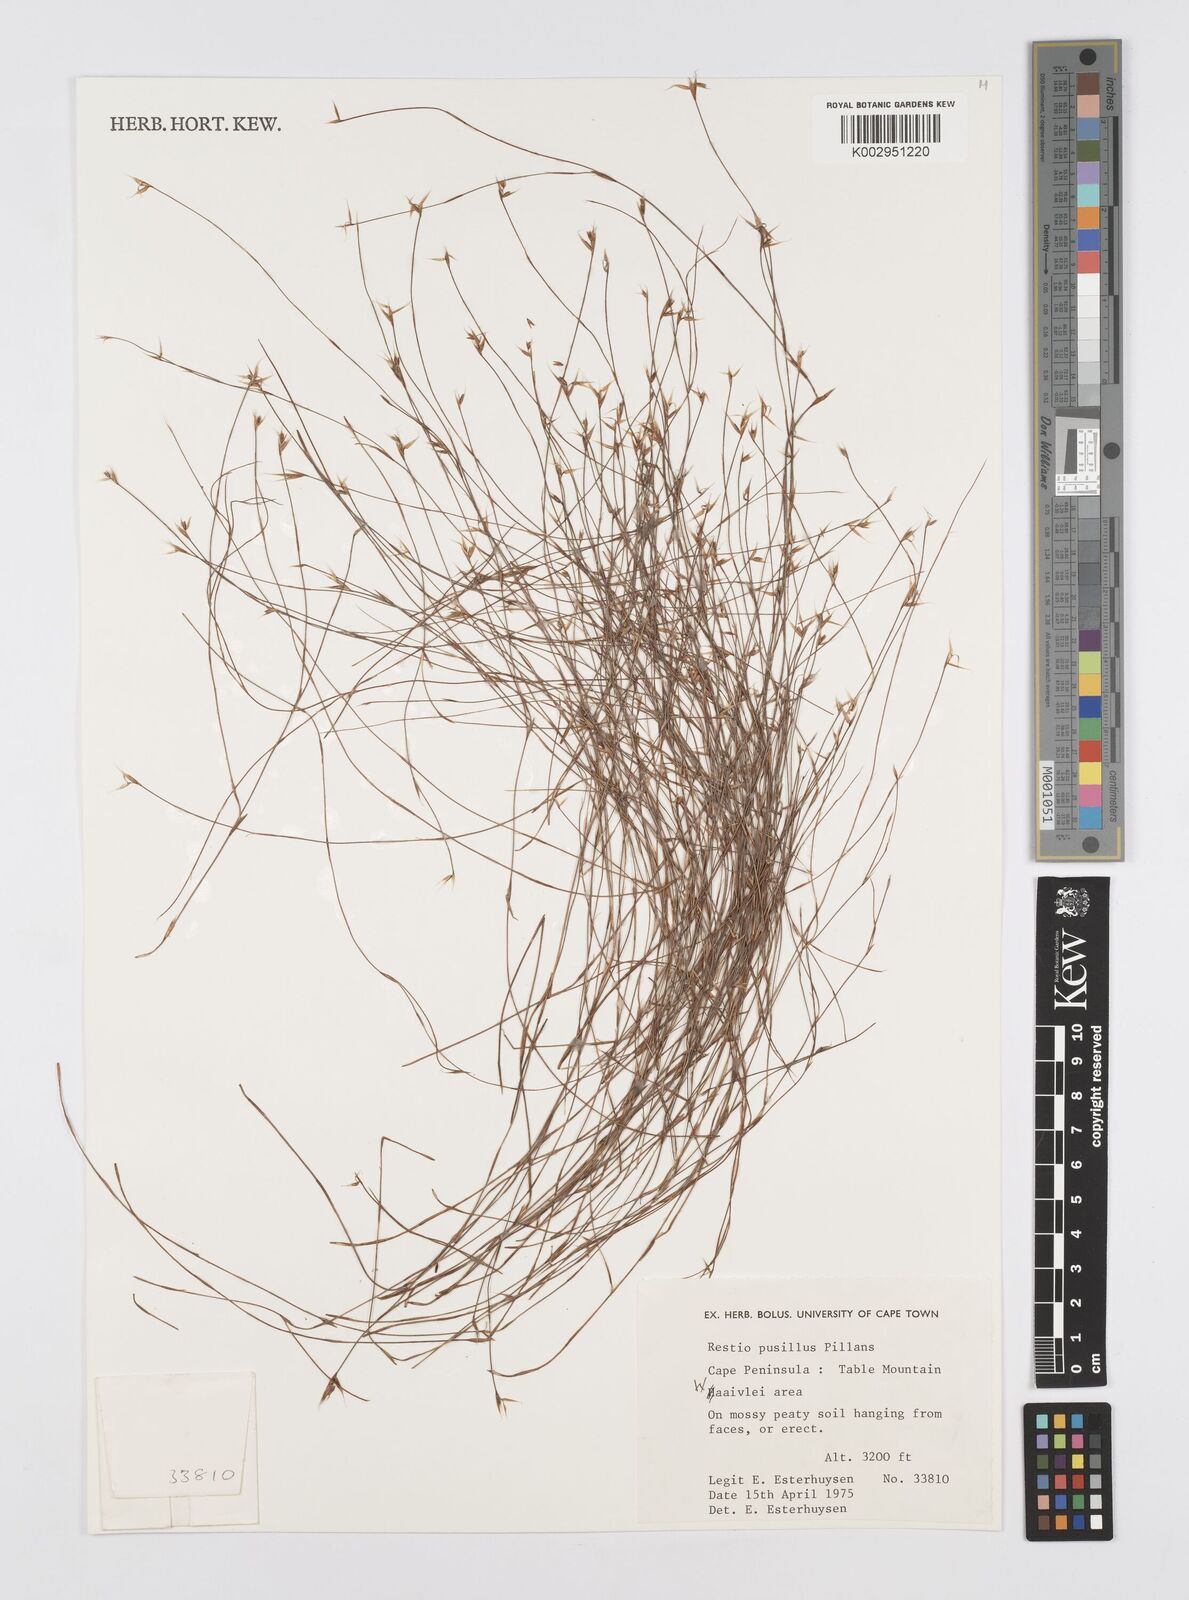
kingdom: Plantae
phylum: Tracheophyta
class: Liliopsida
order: Poales
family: Restionaceae
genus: Restio
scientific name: Restio leptostachyus
